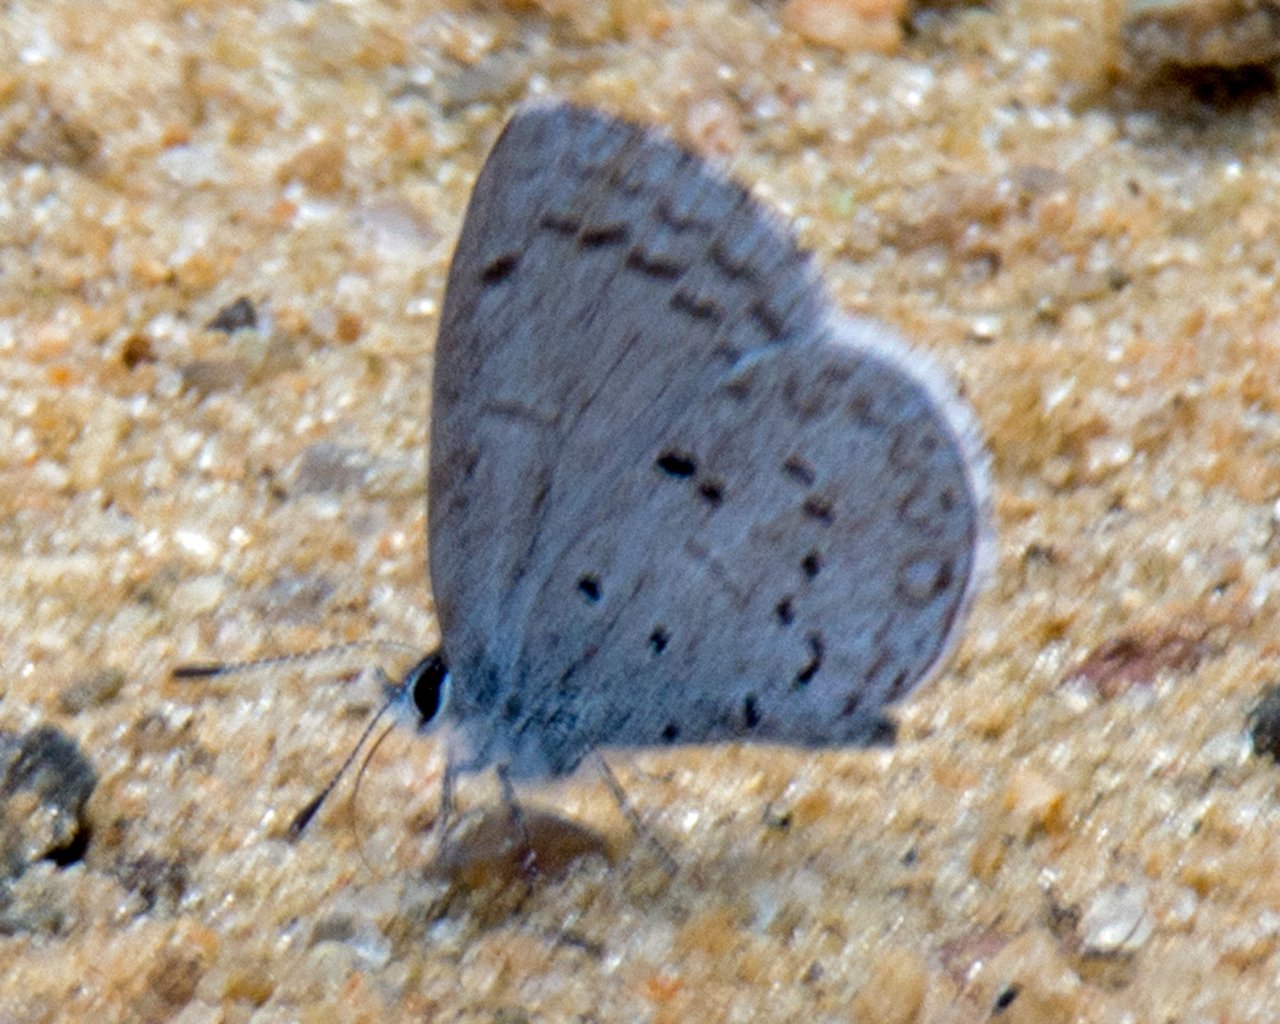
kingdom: Animalia
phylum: Arthropoda
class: Insecta
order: Lepidoptera
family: Lycaenidae
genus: Celastrina
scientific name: Celastrina
